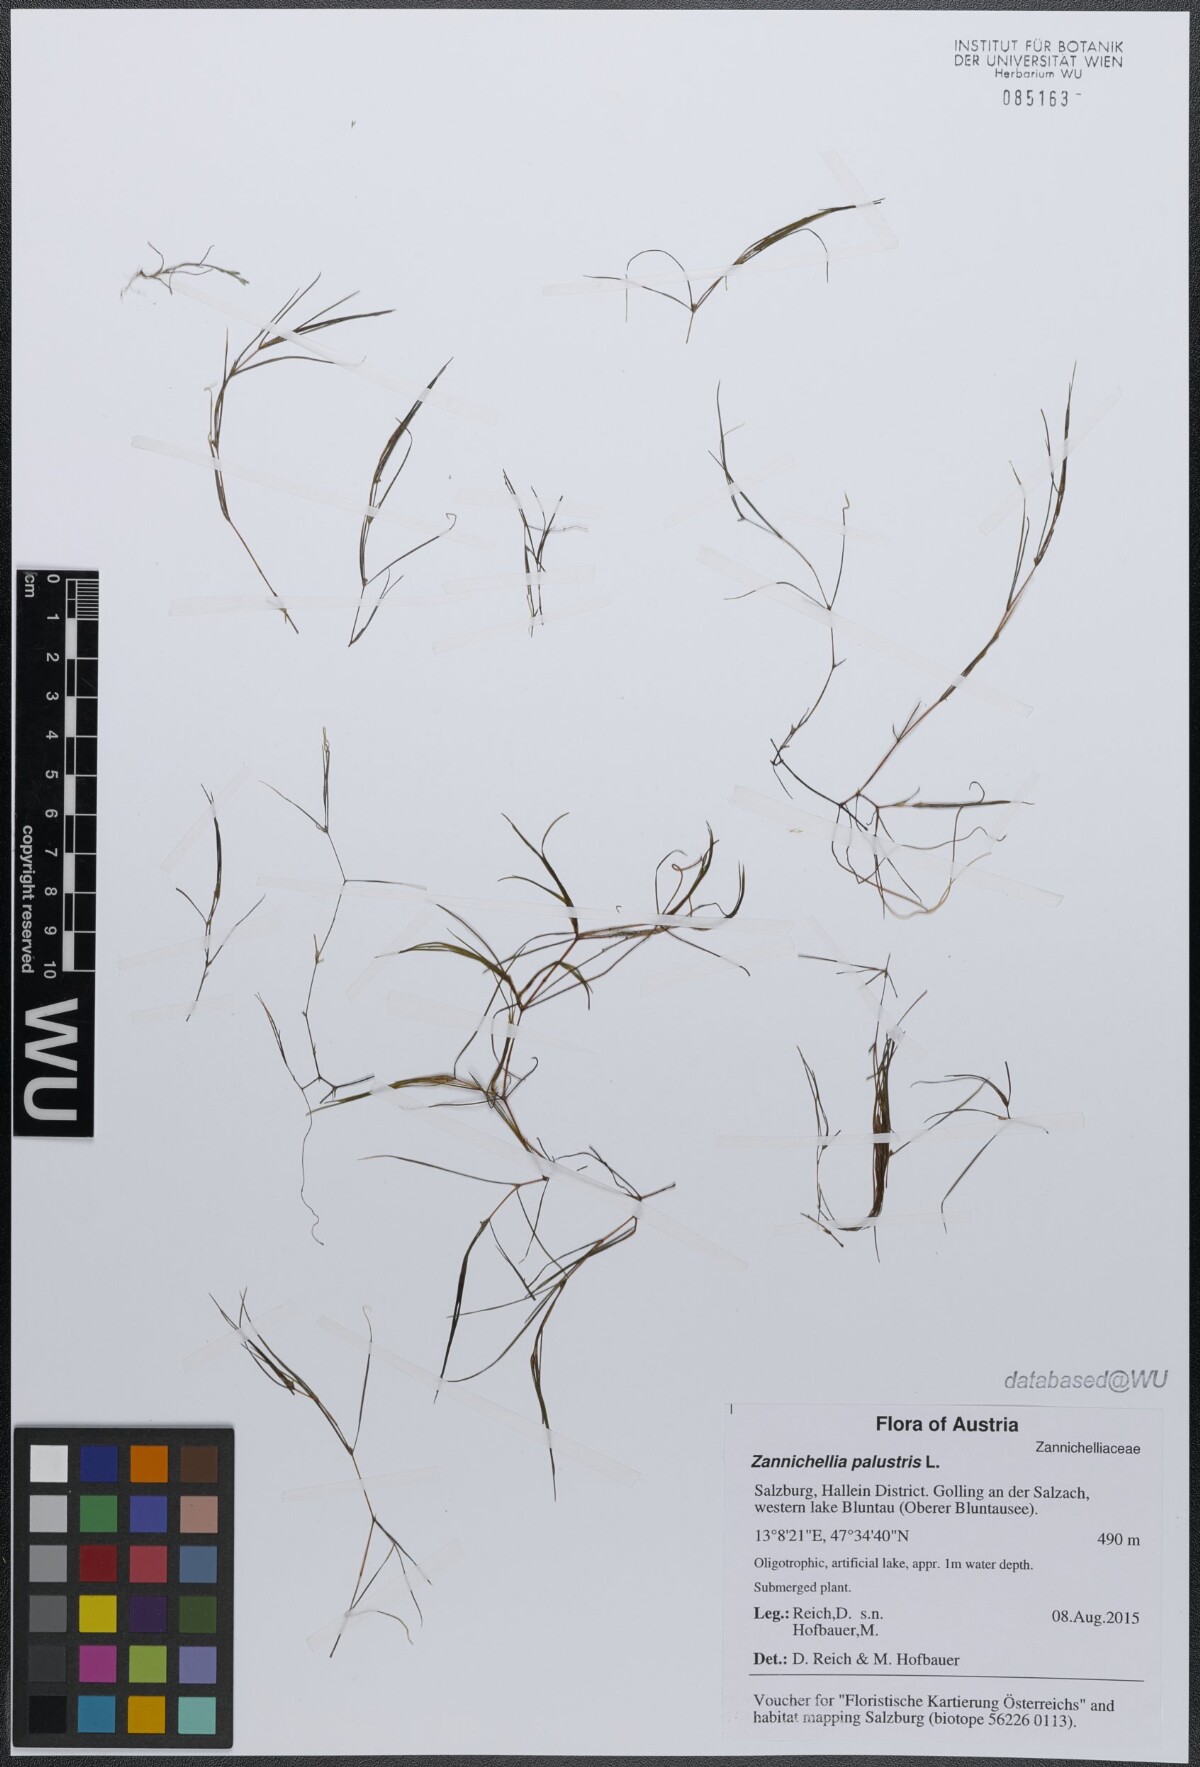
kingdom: Plantae
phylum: Tracheophyta
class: Liliopsida
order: Alismatales
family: Potamogetonaceae
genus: Zannichellia
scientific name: Zannichellia palustris
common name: Horned pondweed
